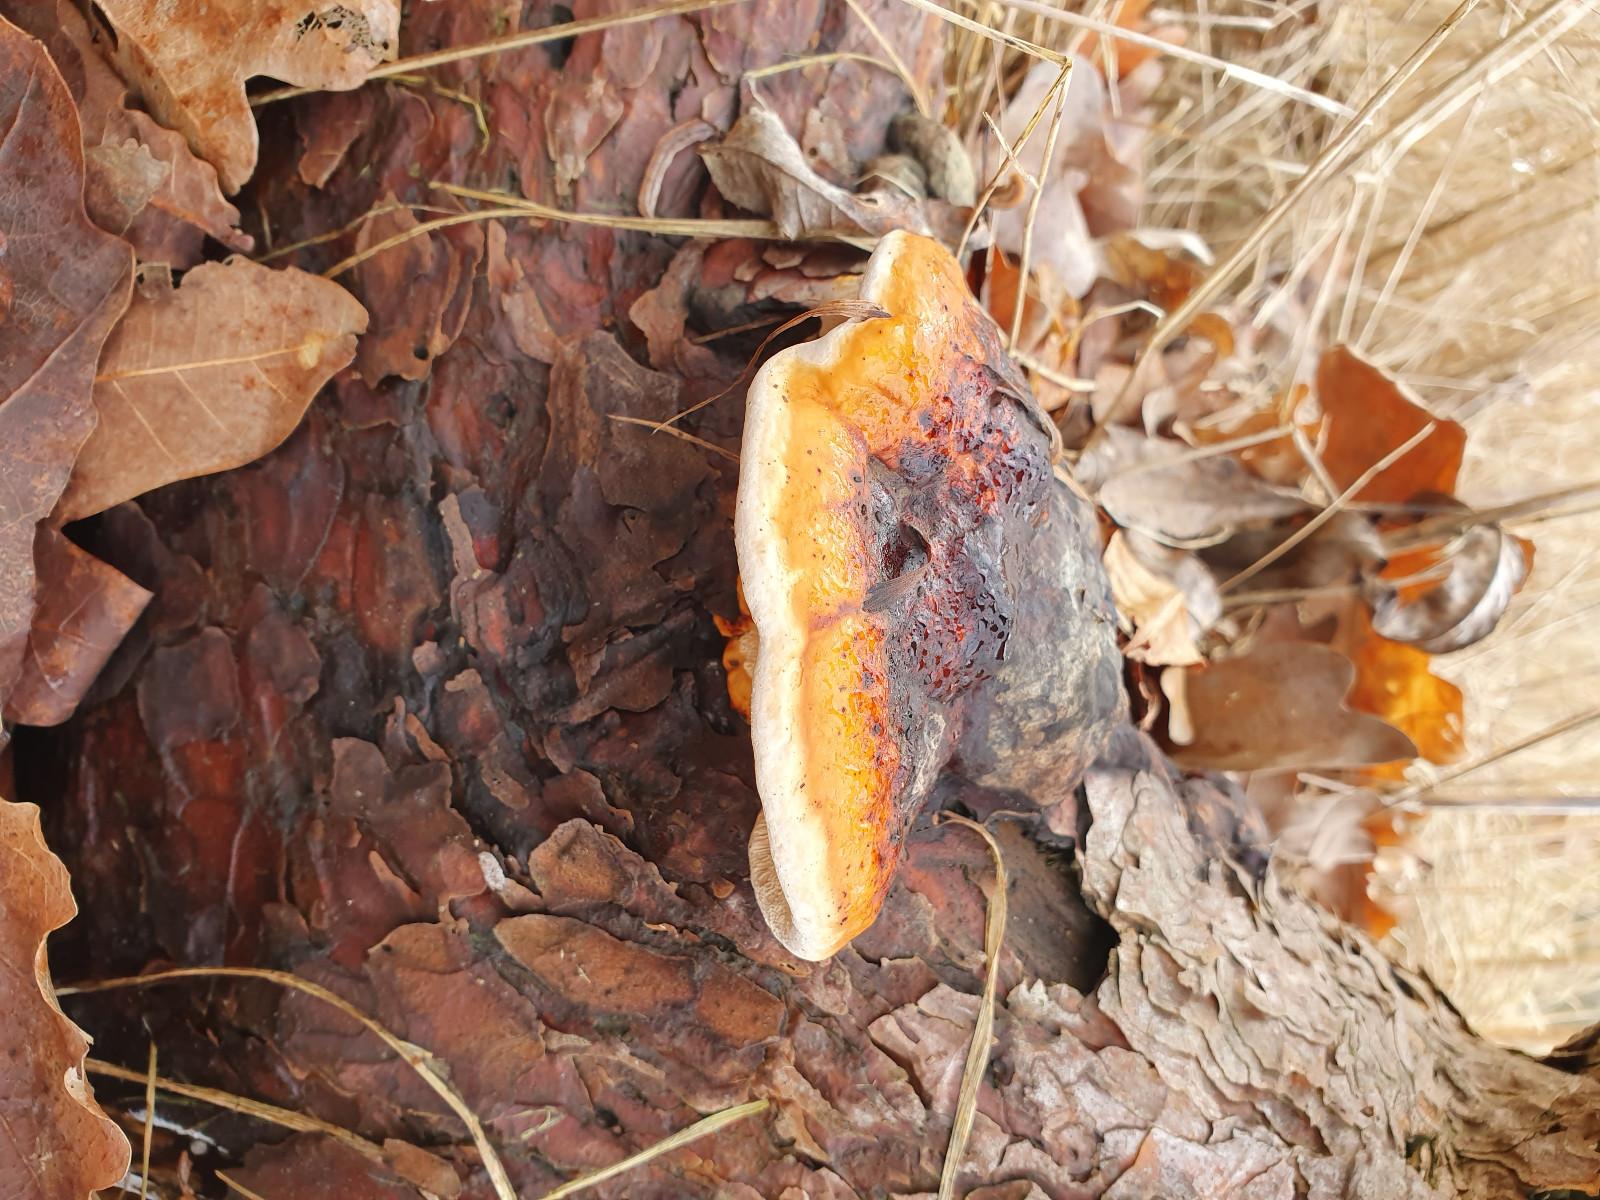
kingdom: Fungi
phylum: Basidiomycota
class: Agaricomycetes
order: Polyporales
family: Fomitopsidaceae
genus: Fomitopsis
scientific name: Fomitopsis pinicola
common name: randbæltet hovporesvamp
